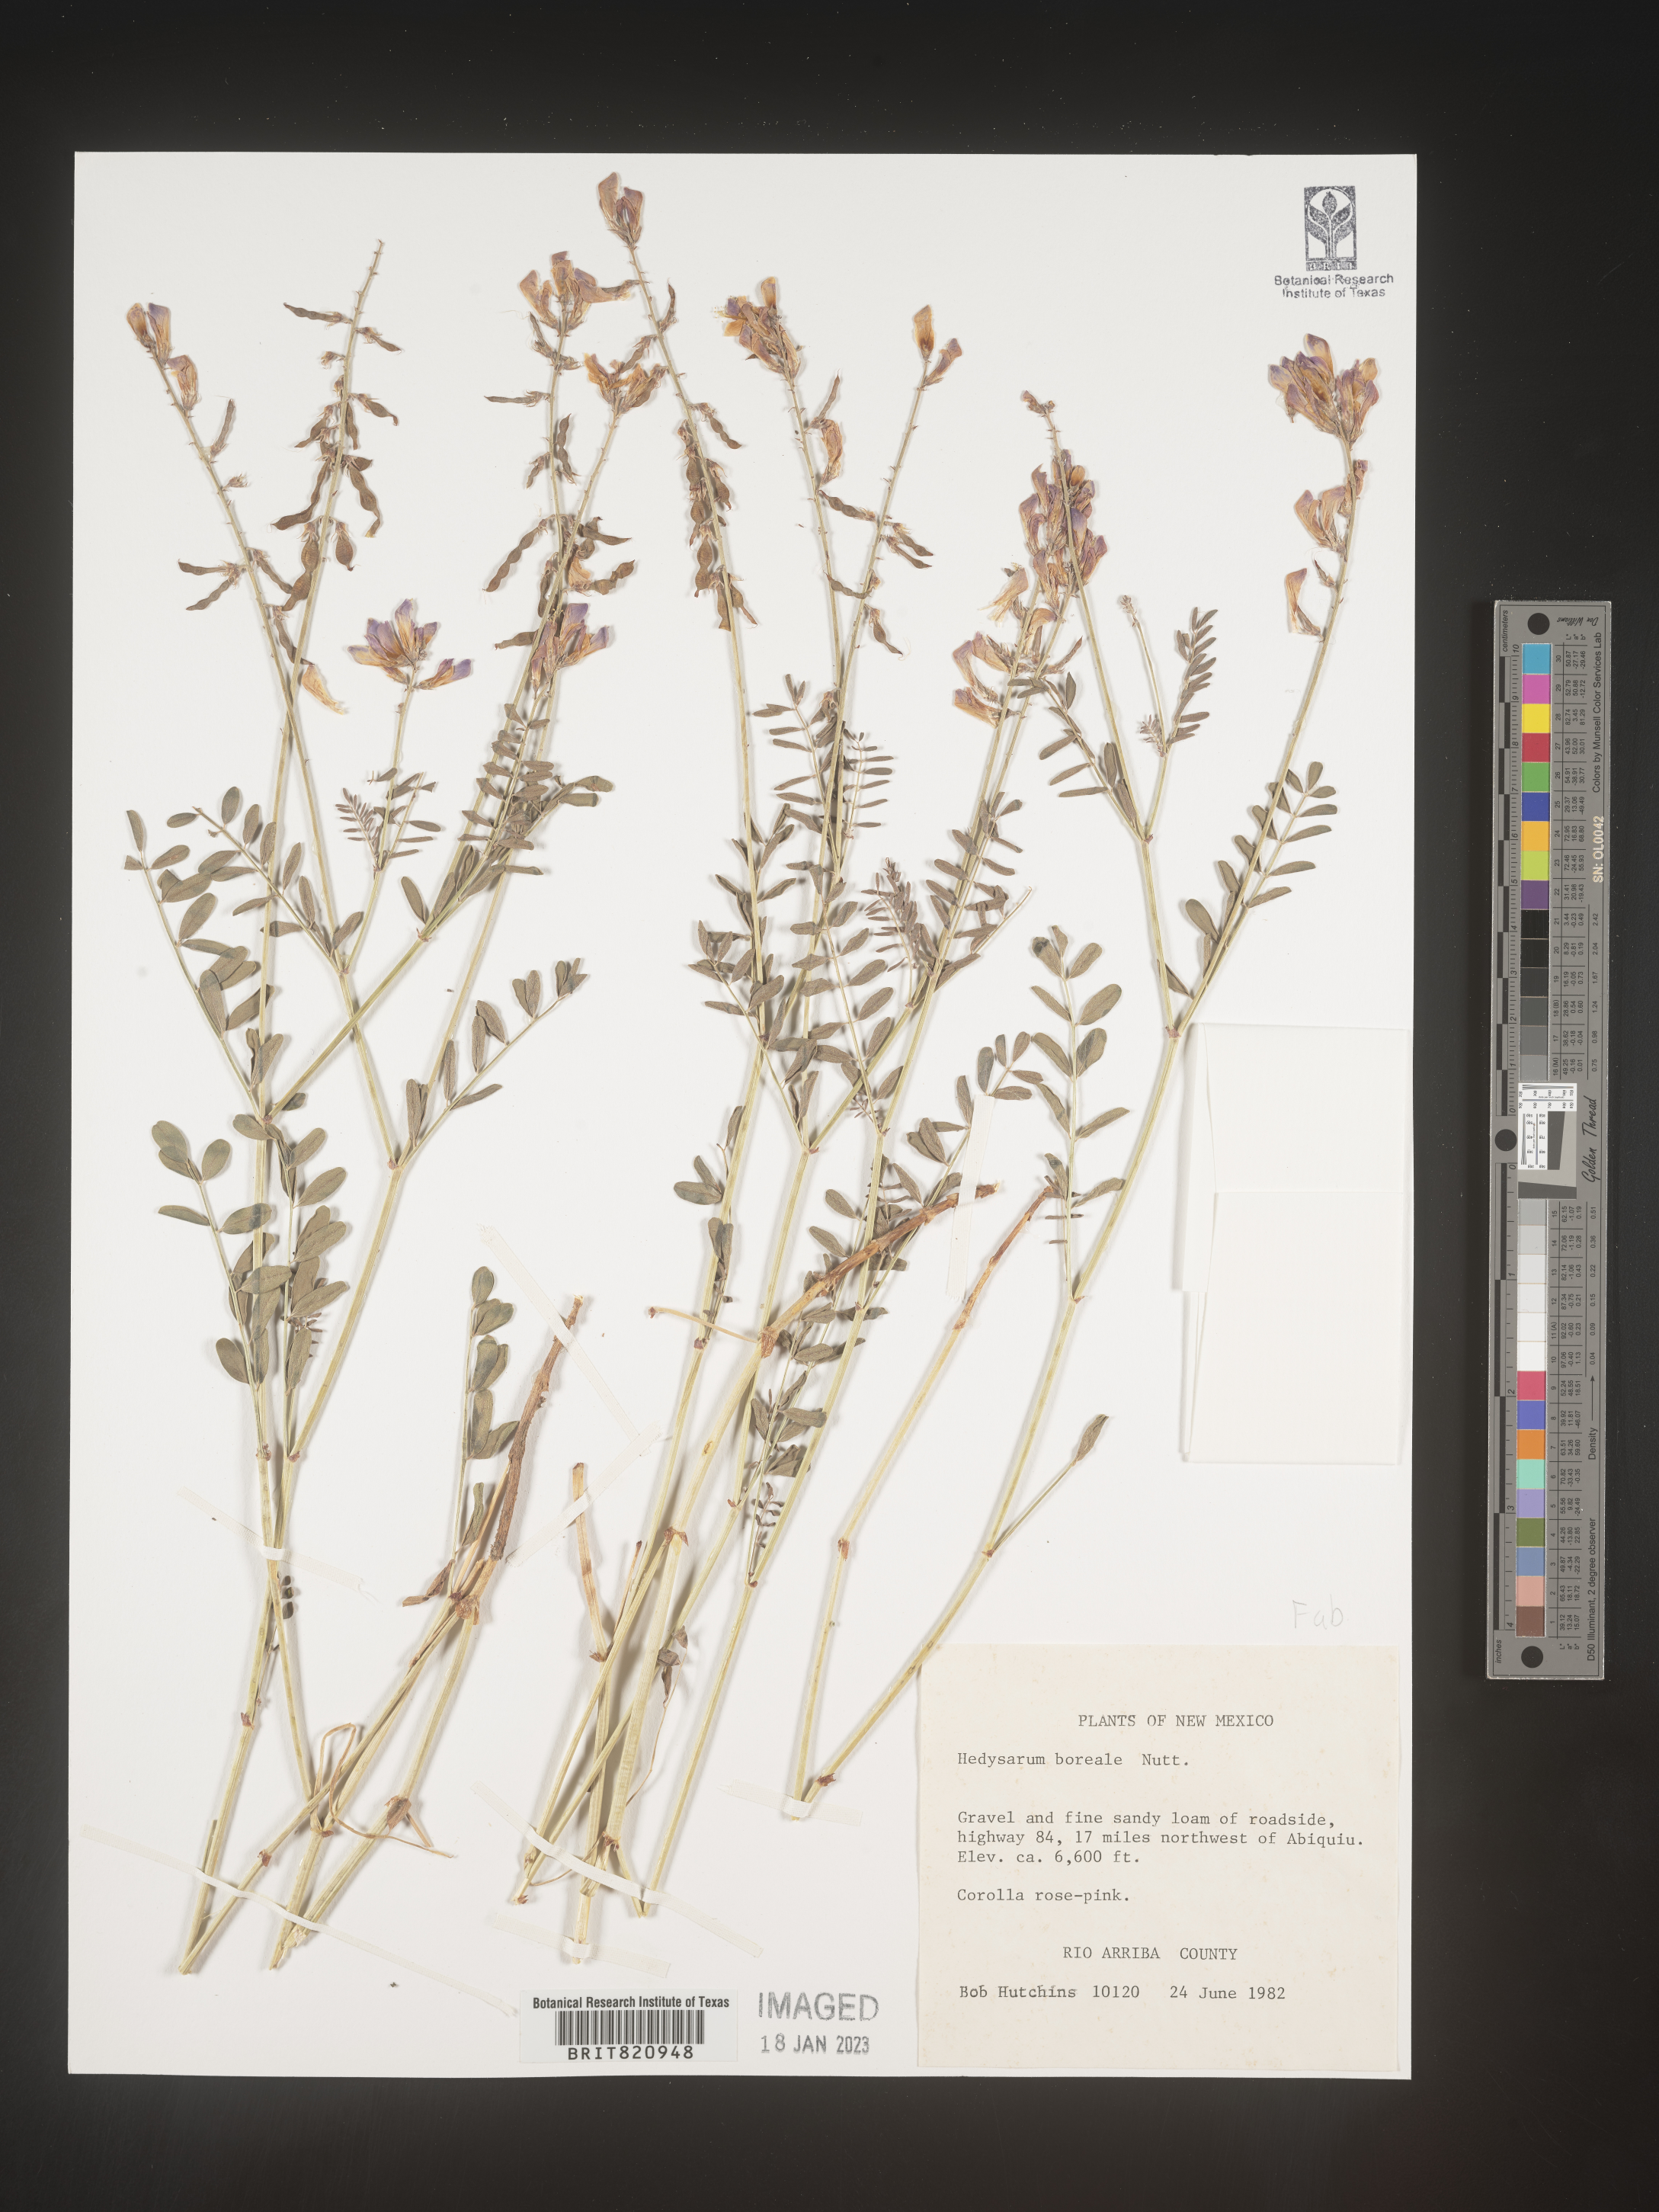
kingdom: Plantae
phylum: Tracheophyta
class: Magnoliopsida
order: Fabales
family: Fabaceae
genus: Hedysarum
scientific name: Hedysarum boreale
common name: Northern sweet-vetch
